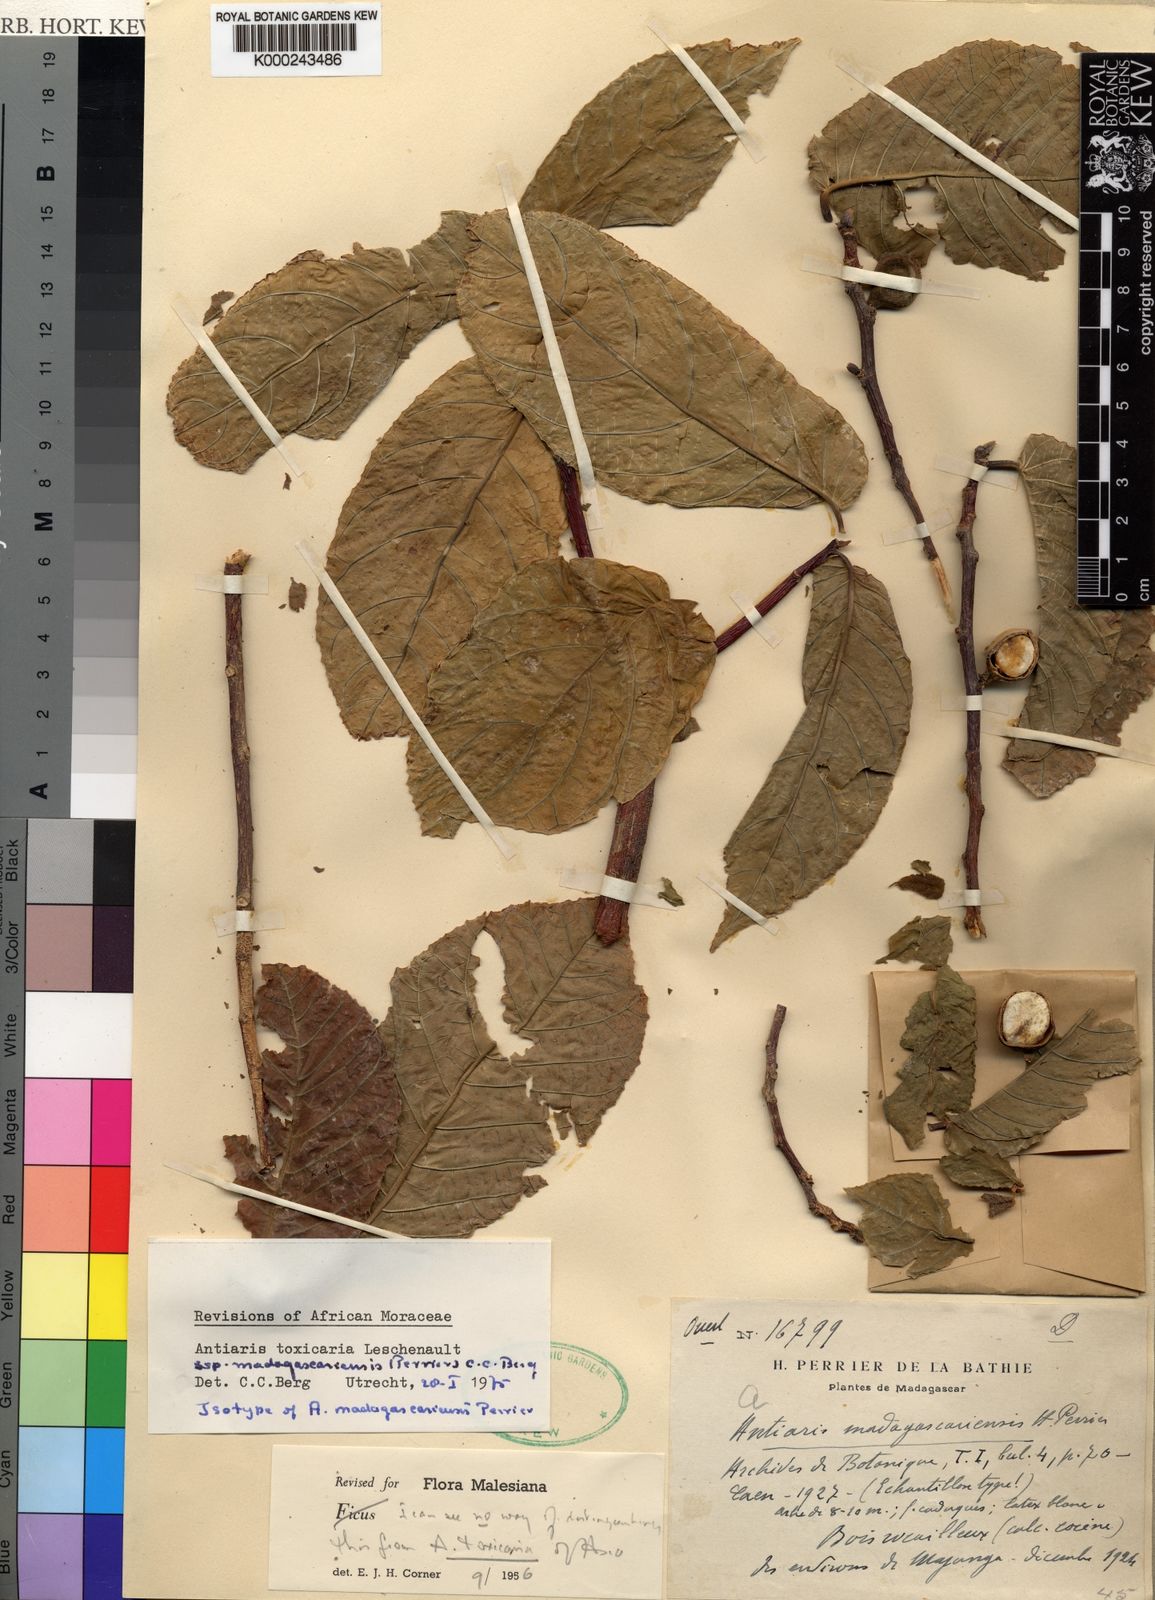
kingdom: Plantae
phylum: Tracheophyta
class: Magnoliopsida
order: Rosales
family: Moraceae
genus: Antiaris
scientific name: Antiaris madagascariensis
